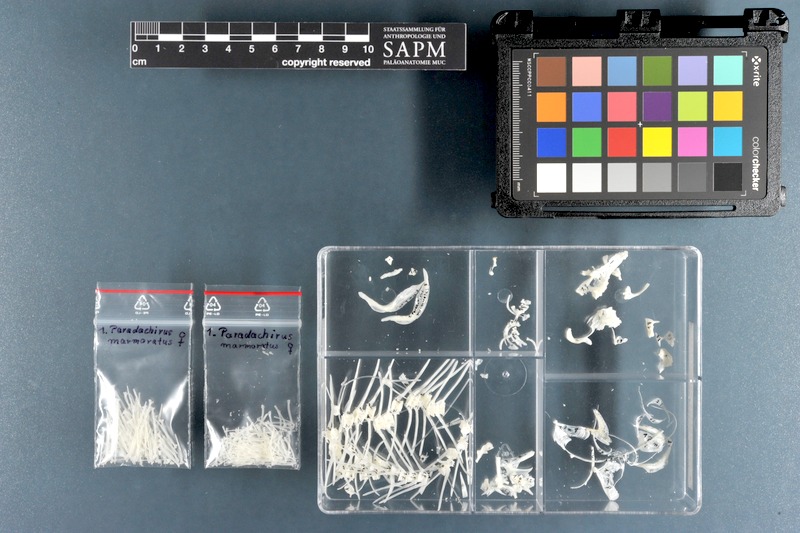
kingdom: Animalia
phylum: Chordata
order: Pleuronectiformes
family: Soleidae
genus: Pardachirus
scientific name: Pardachirus marmoratus
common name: Finless sole
